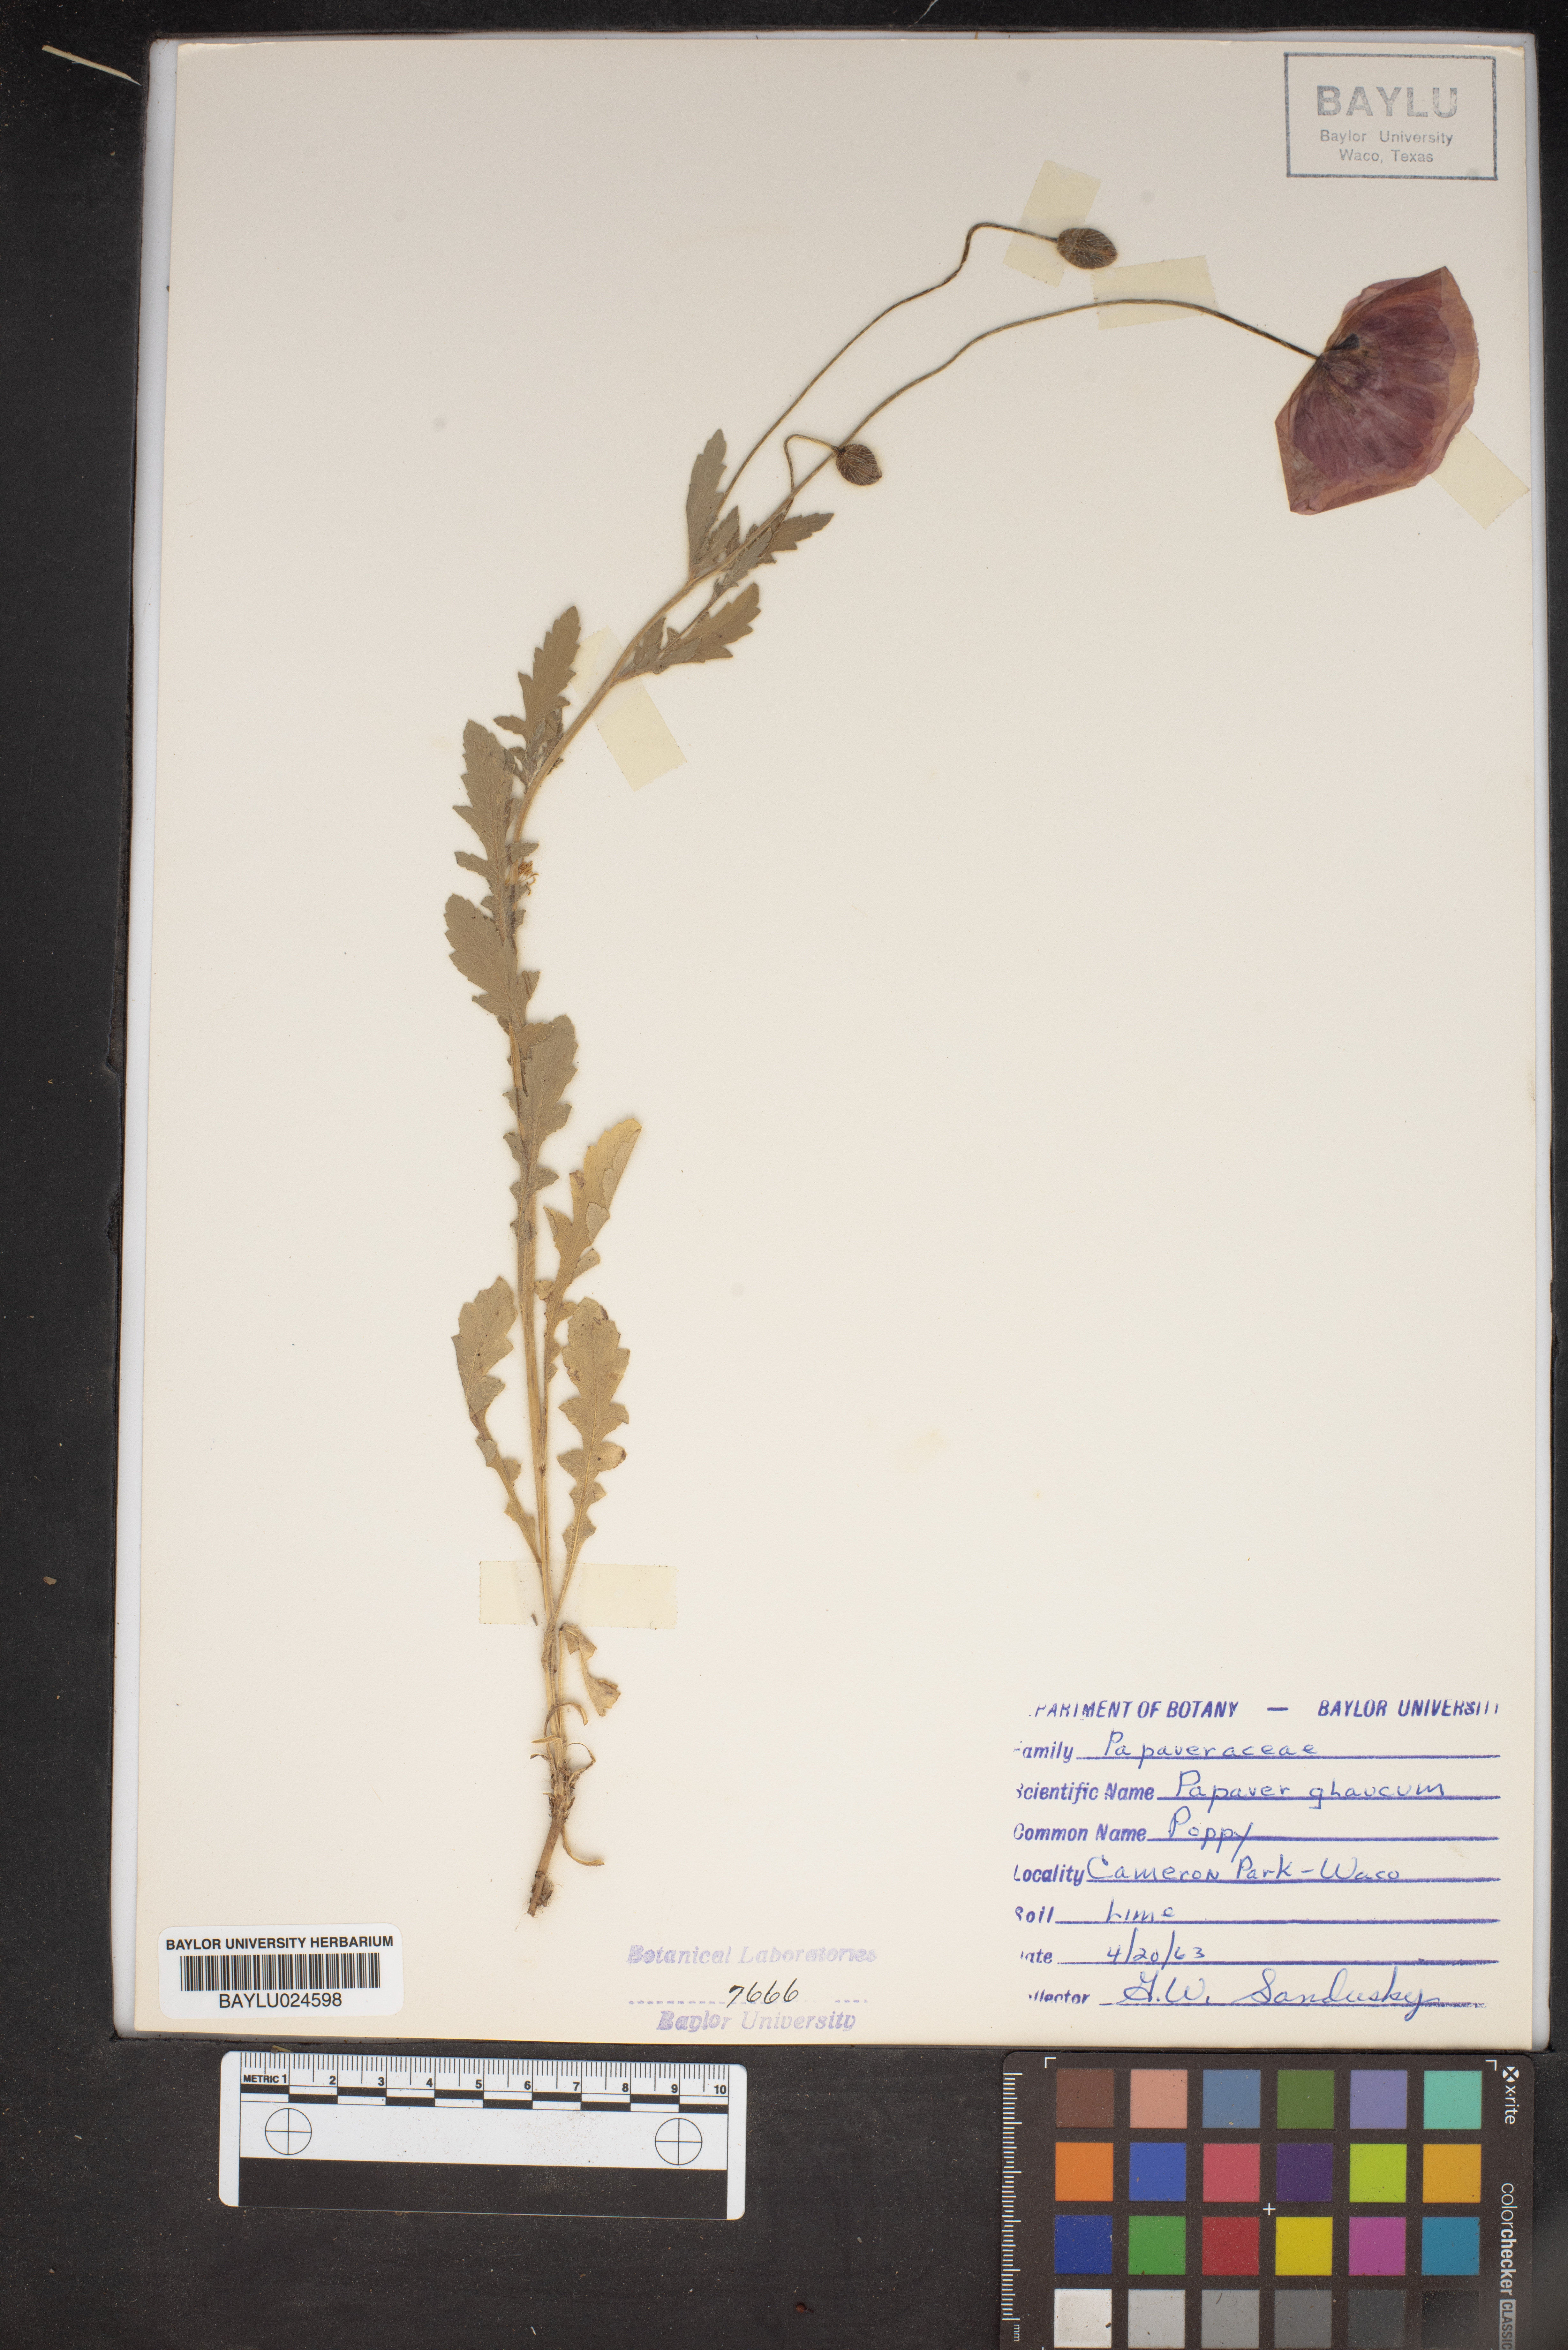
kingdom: Plantae
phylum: Tracheophyta
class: Magnoliopsida
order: Ranunculales
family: Papaveraceae
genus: Papaver
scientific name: Papaver glaucum
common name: Tulip poppy
